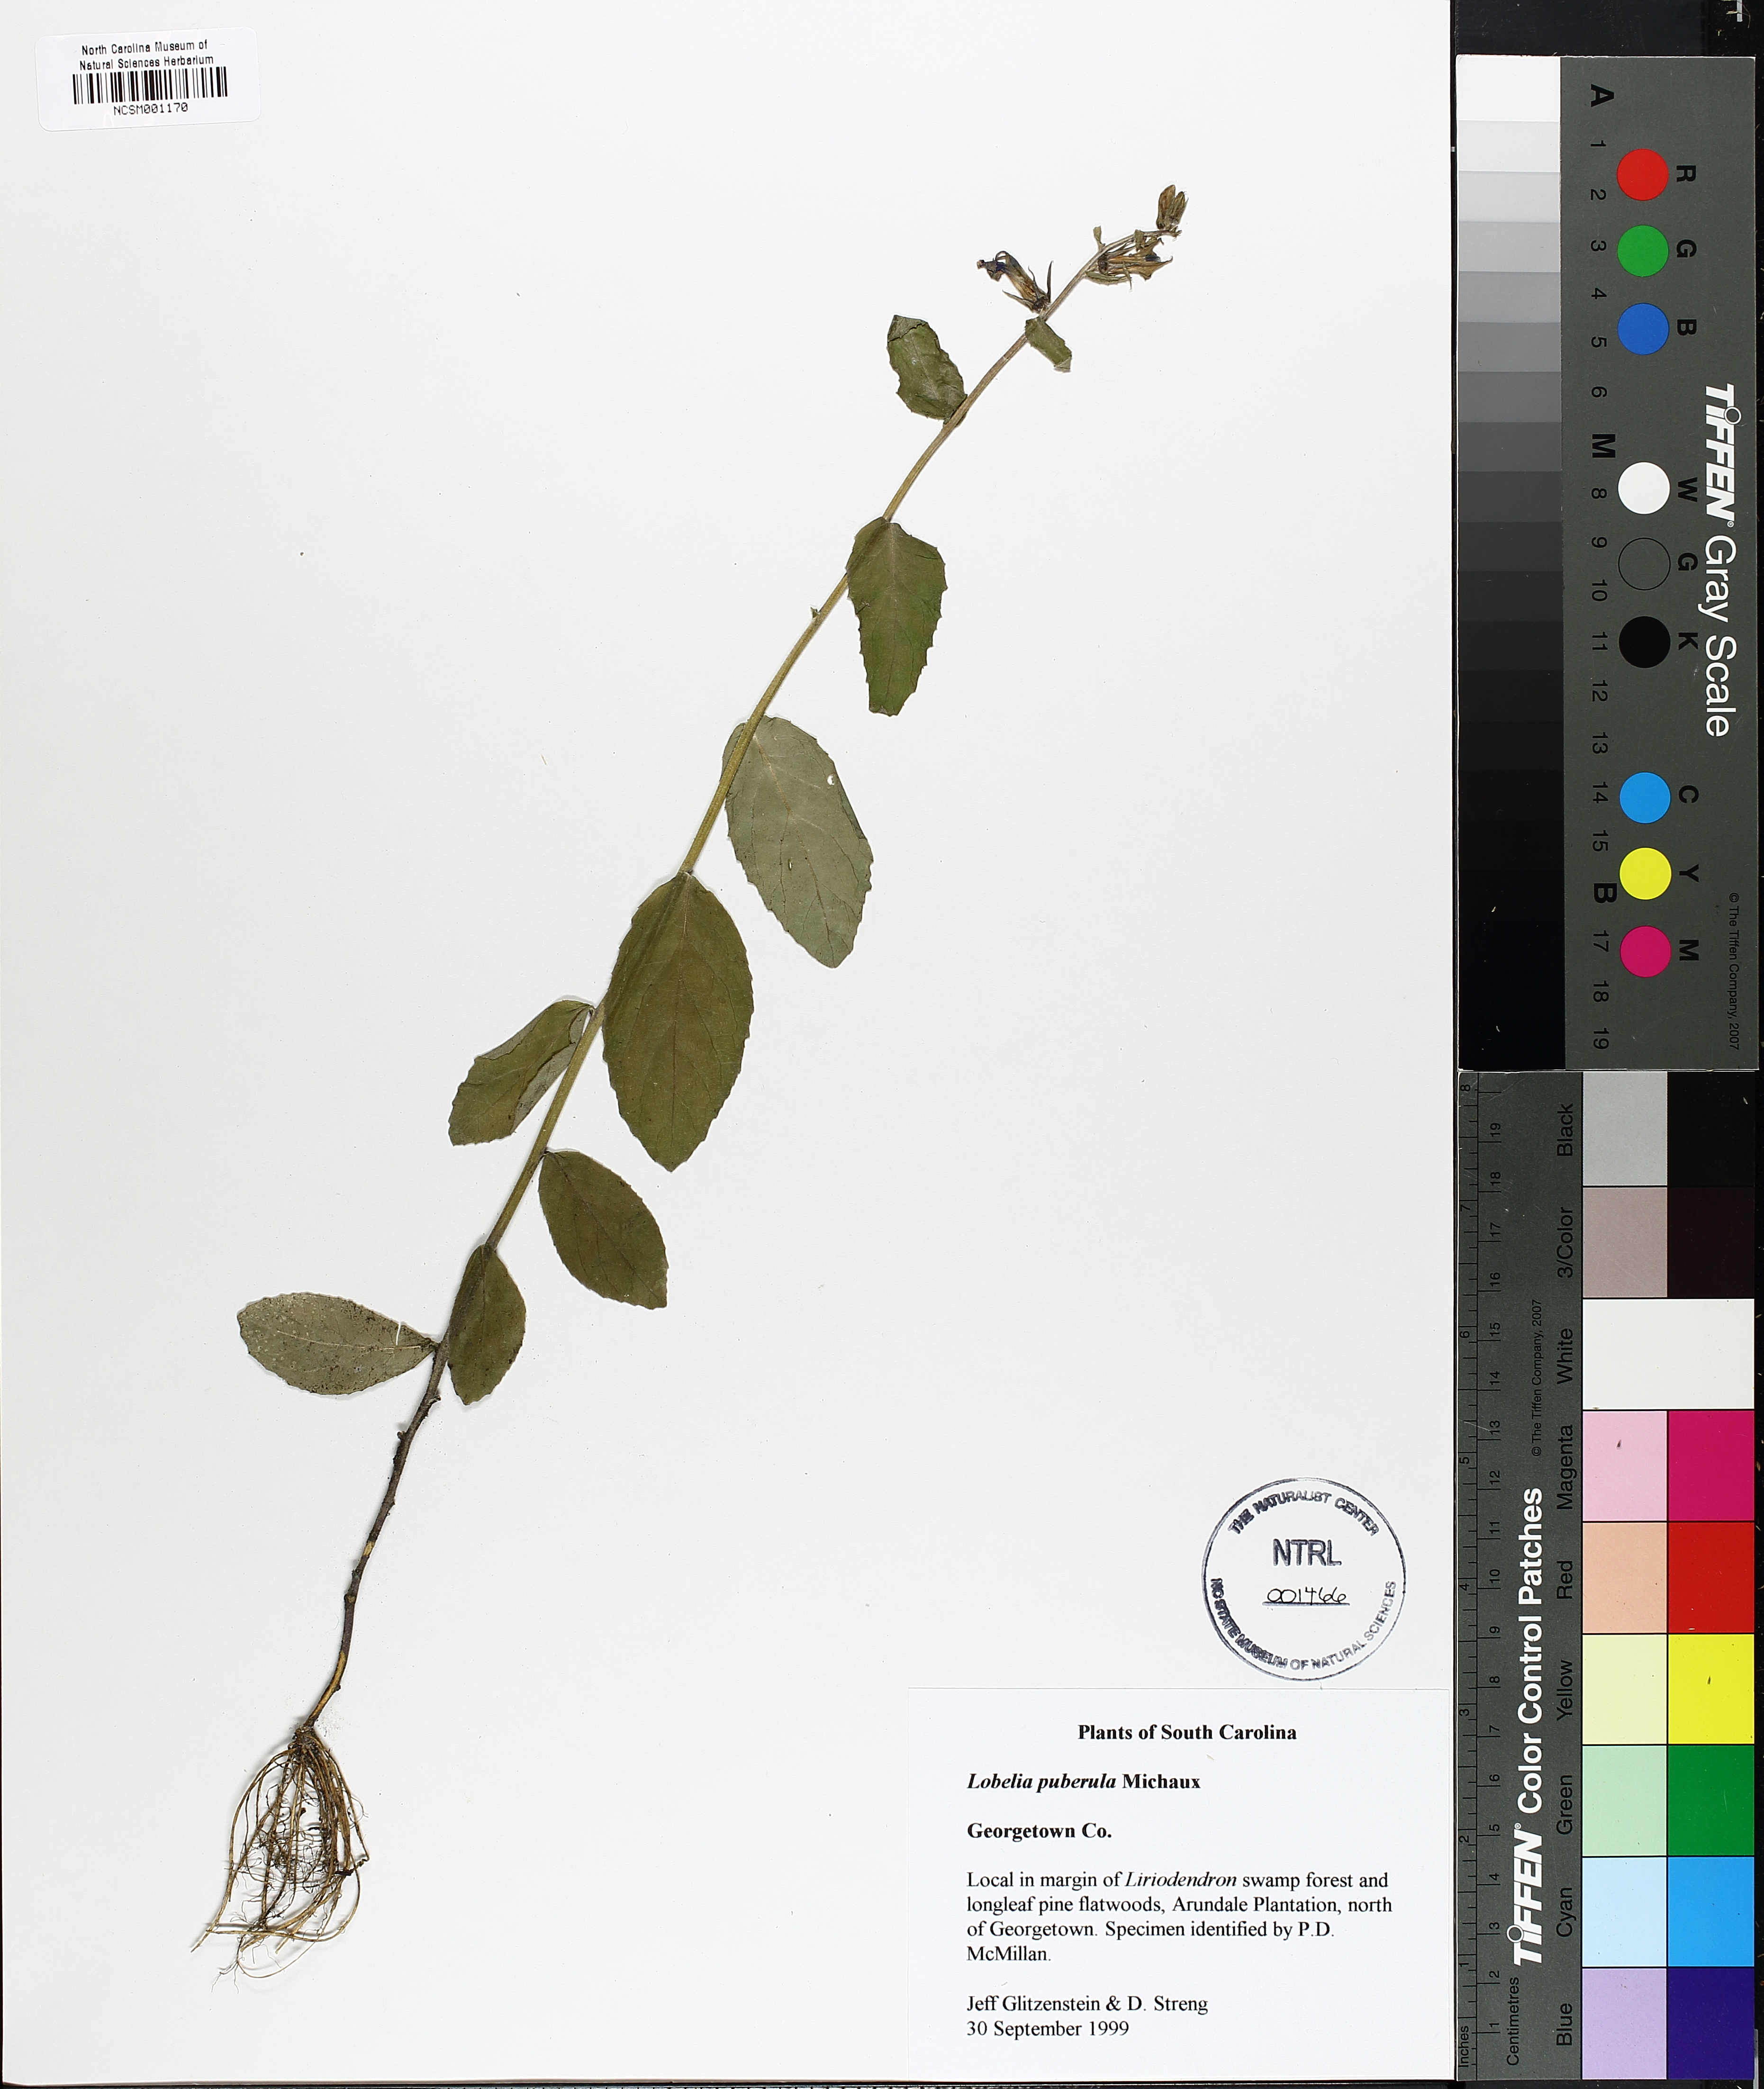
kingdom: Plantae
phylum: Tracheophyta
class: Magnoliopsida
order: Asterales
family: Campanulaceae
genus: Lobelia
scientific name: Lobelia puberula
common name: Purple dewdrop
